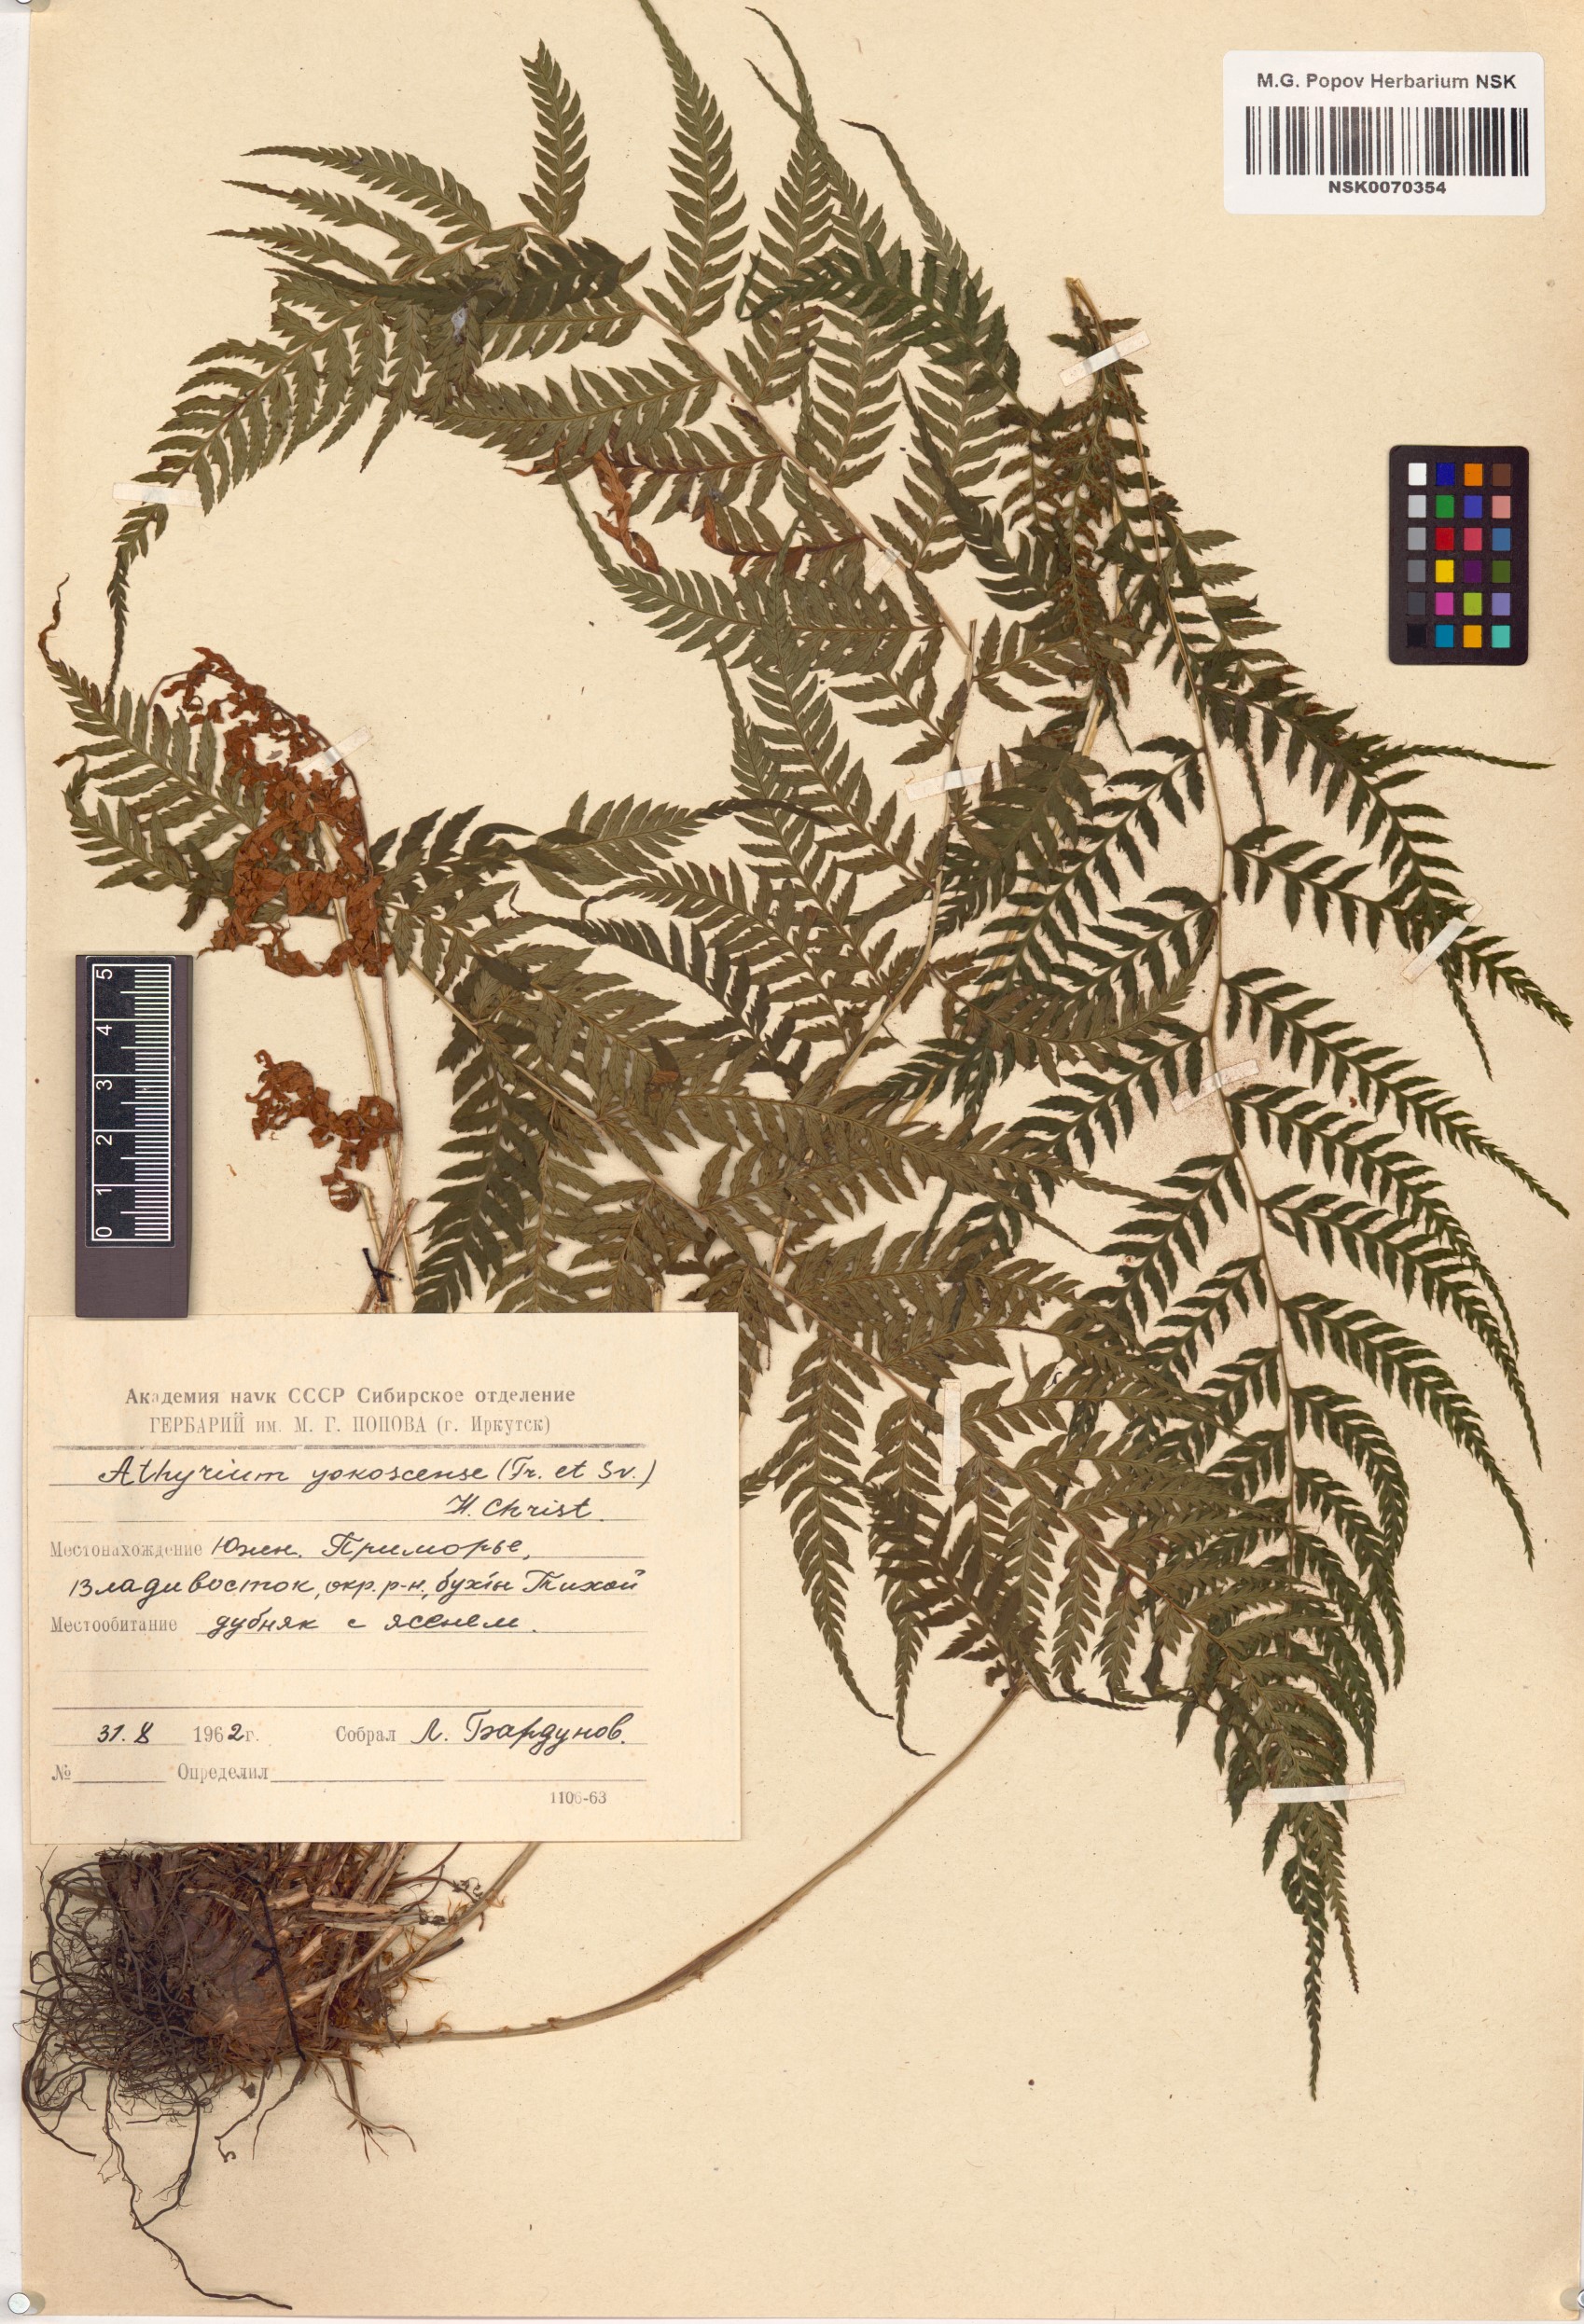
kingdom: Plantae
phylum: Tracheophyta
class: Polypodiopsida
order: Polypodiales
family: Athyriaceae
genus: Athyrium
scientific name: Athyrium yokoscense
